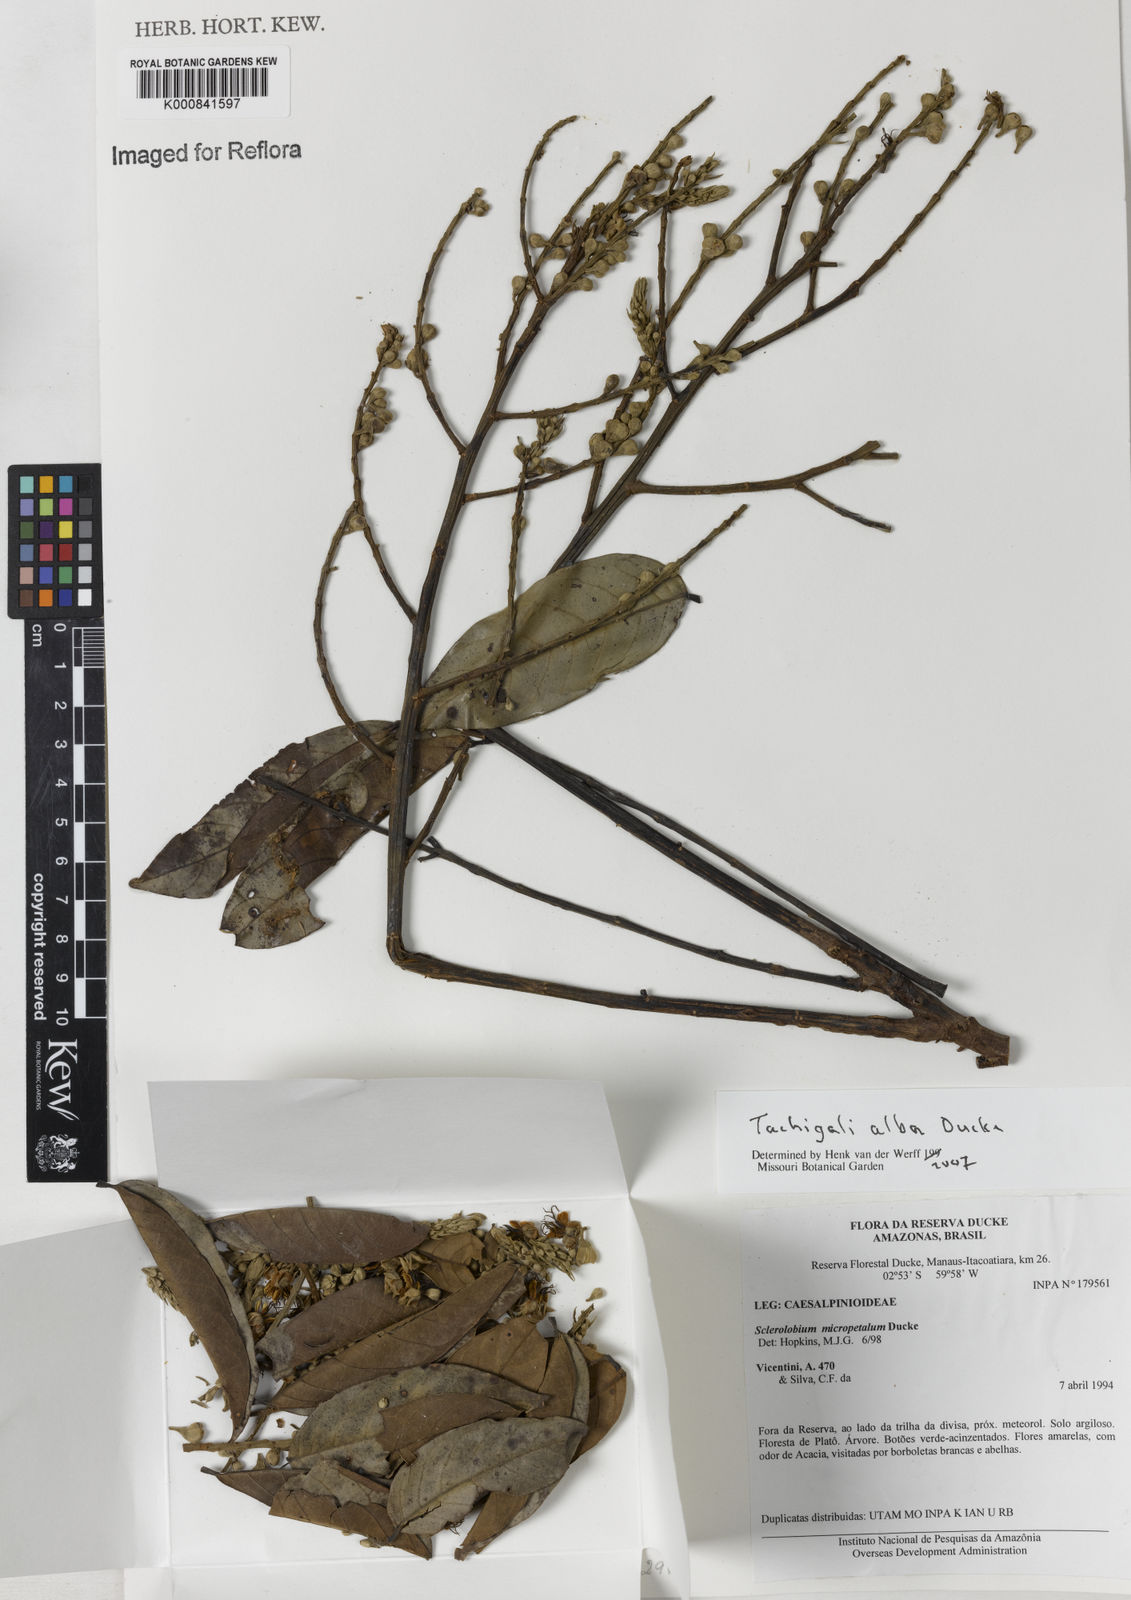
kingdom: Plantae
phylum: Tracheophyta
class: Magnoliopsida
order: Fabales
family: Fabaceae
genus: Tachigali
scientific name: Tachigali alba
